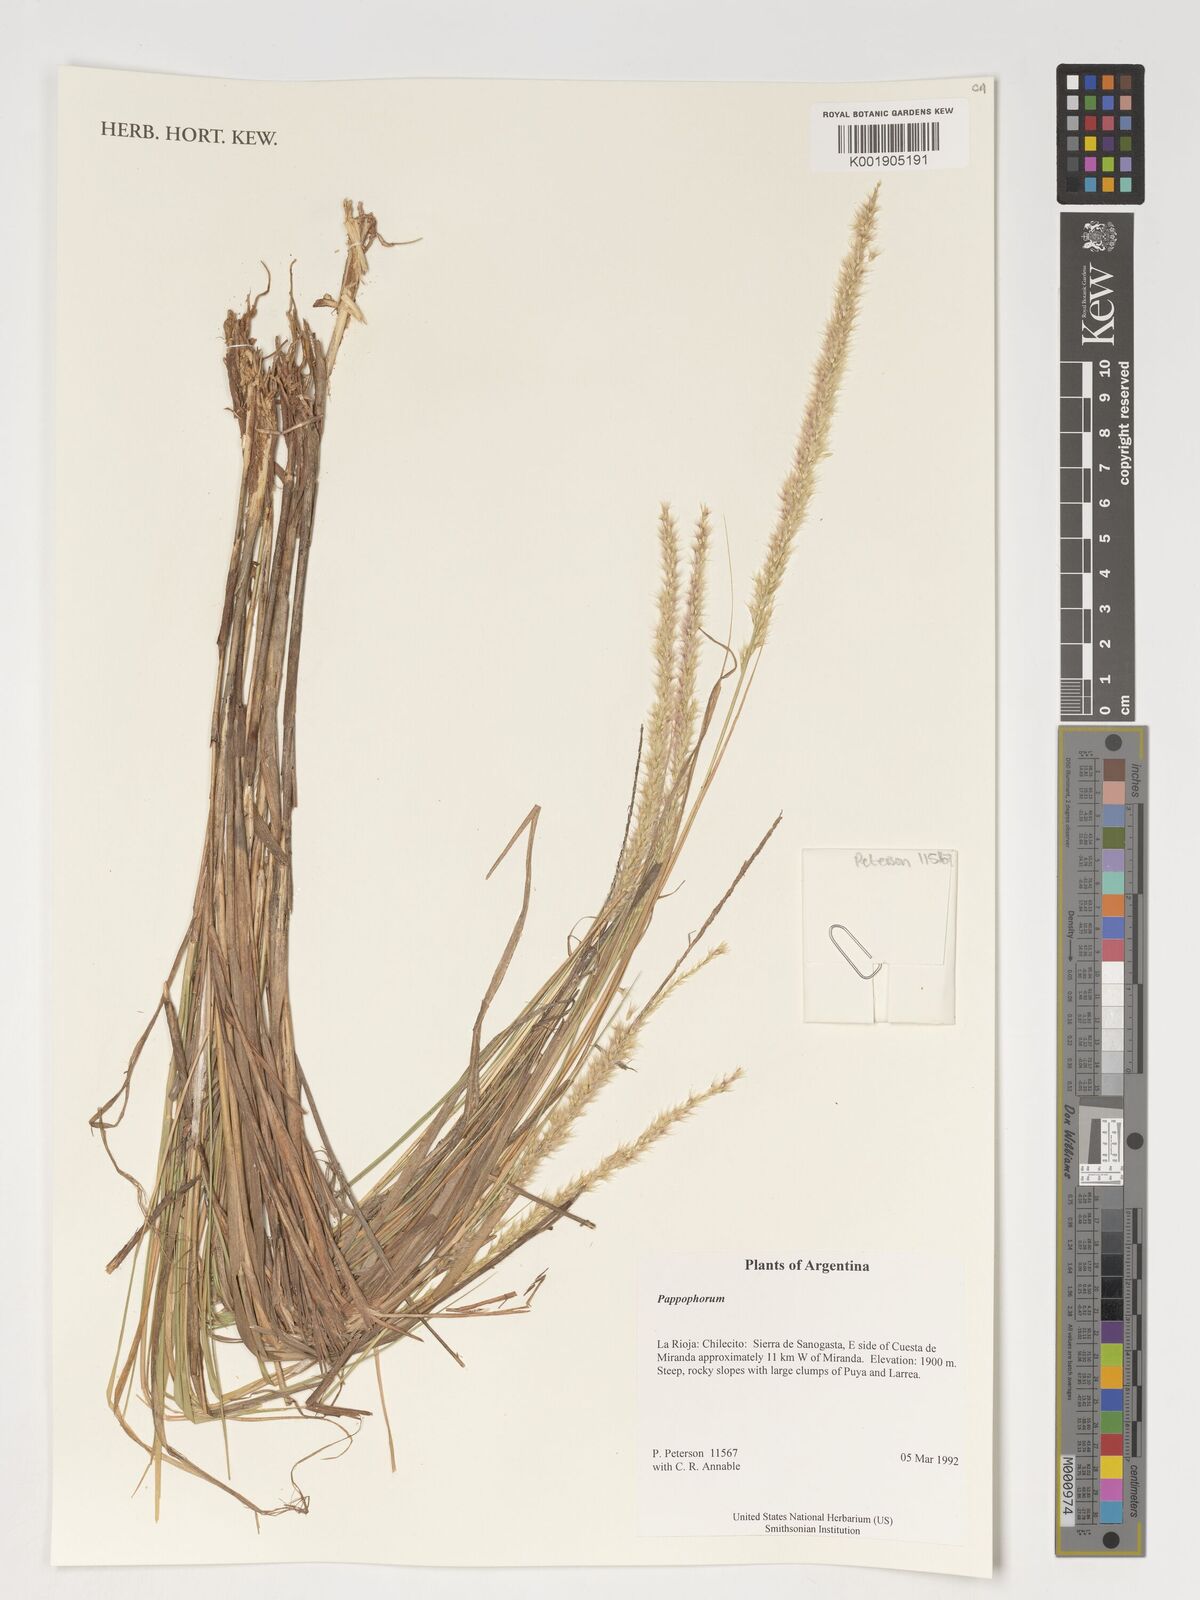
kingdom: Plantae
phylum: Tracheophyta
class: Liliopsida
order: Poales
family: Poaceae
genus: Pappophorum
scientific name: Pappophorum
